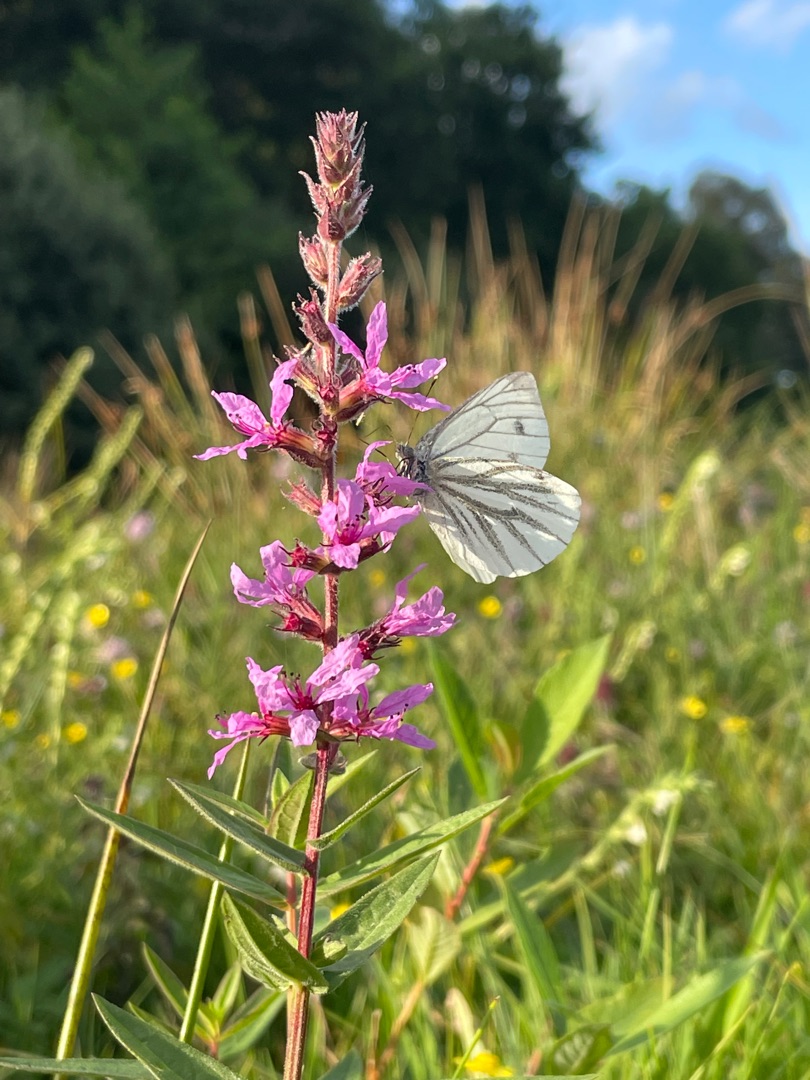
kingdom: Animalia
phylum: Arthropoda
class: Insecta
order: Lepidoptera
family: Pieridae
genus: Pieris
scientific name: Pieris napi
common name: Grønåret kålsommerfugl
